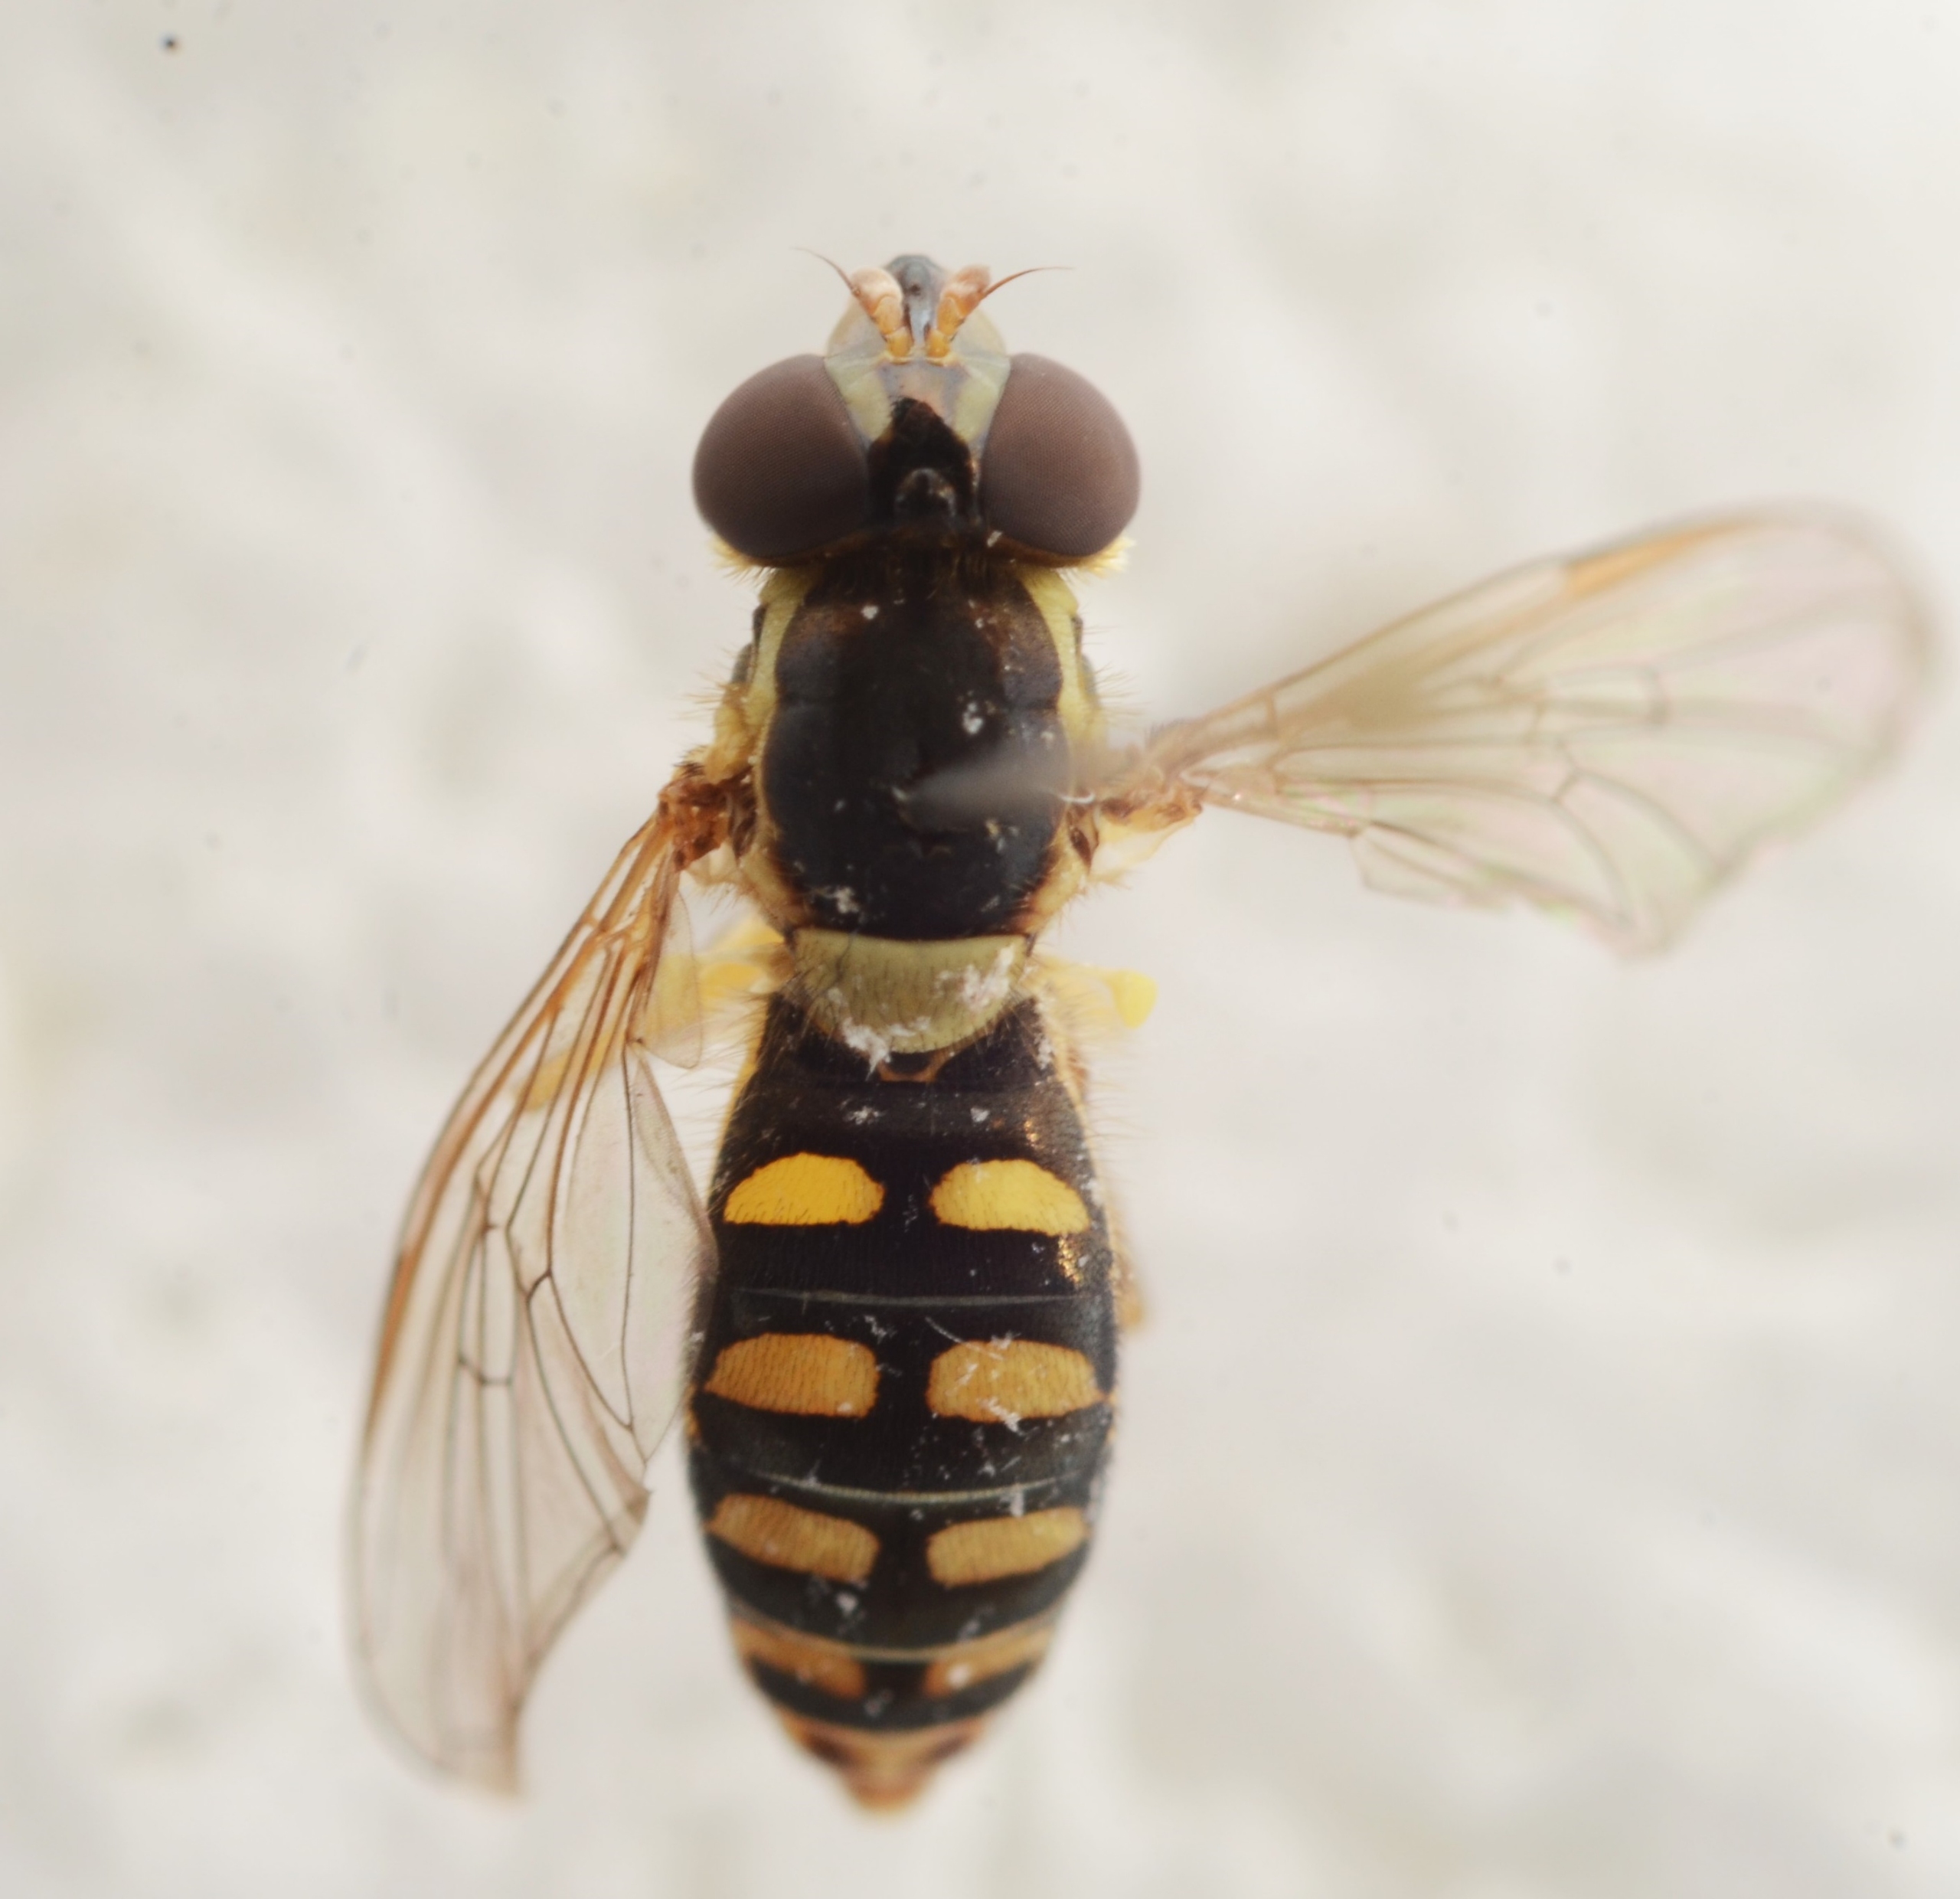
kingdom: Animalia
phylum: Arthropoda
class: Insecta
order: Diptera
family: Syrphidae
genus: Sphaerophoria
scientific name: Sphaerophoria interrupta
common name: Plettet kuglebærerflue
